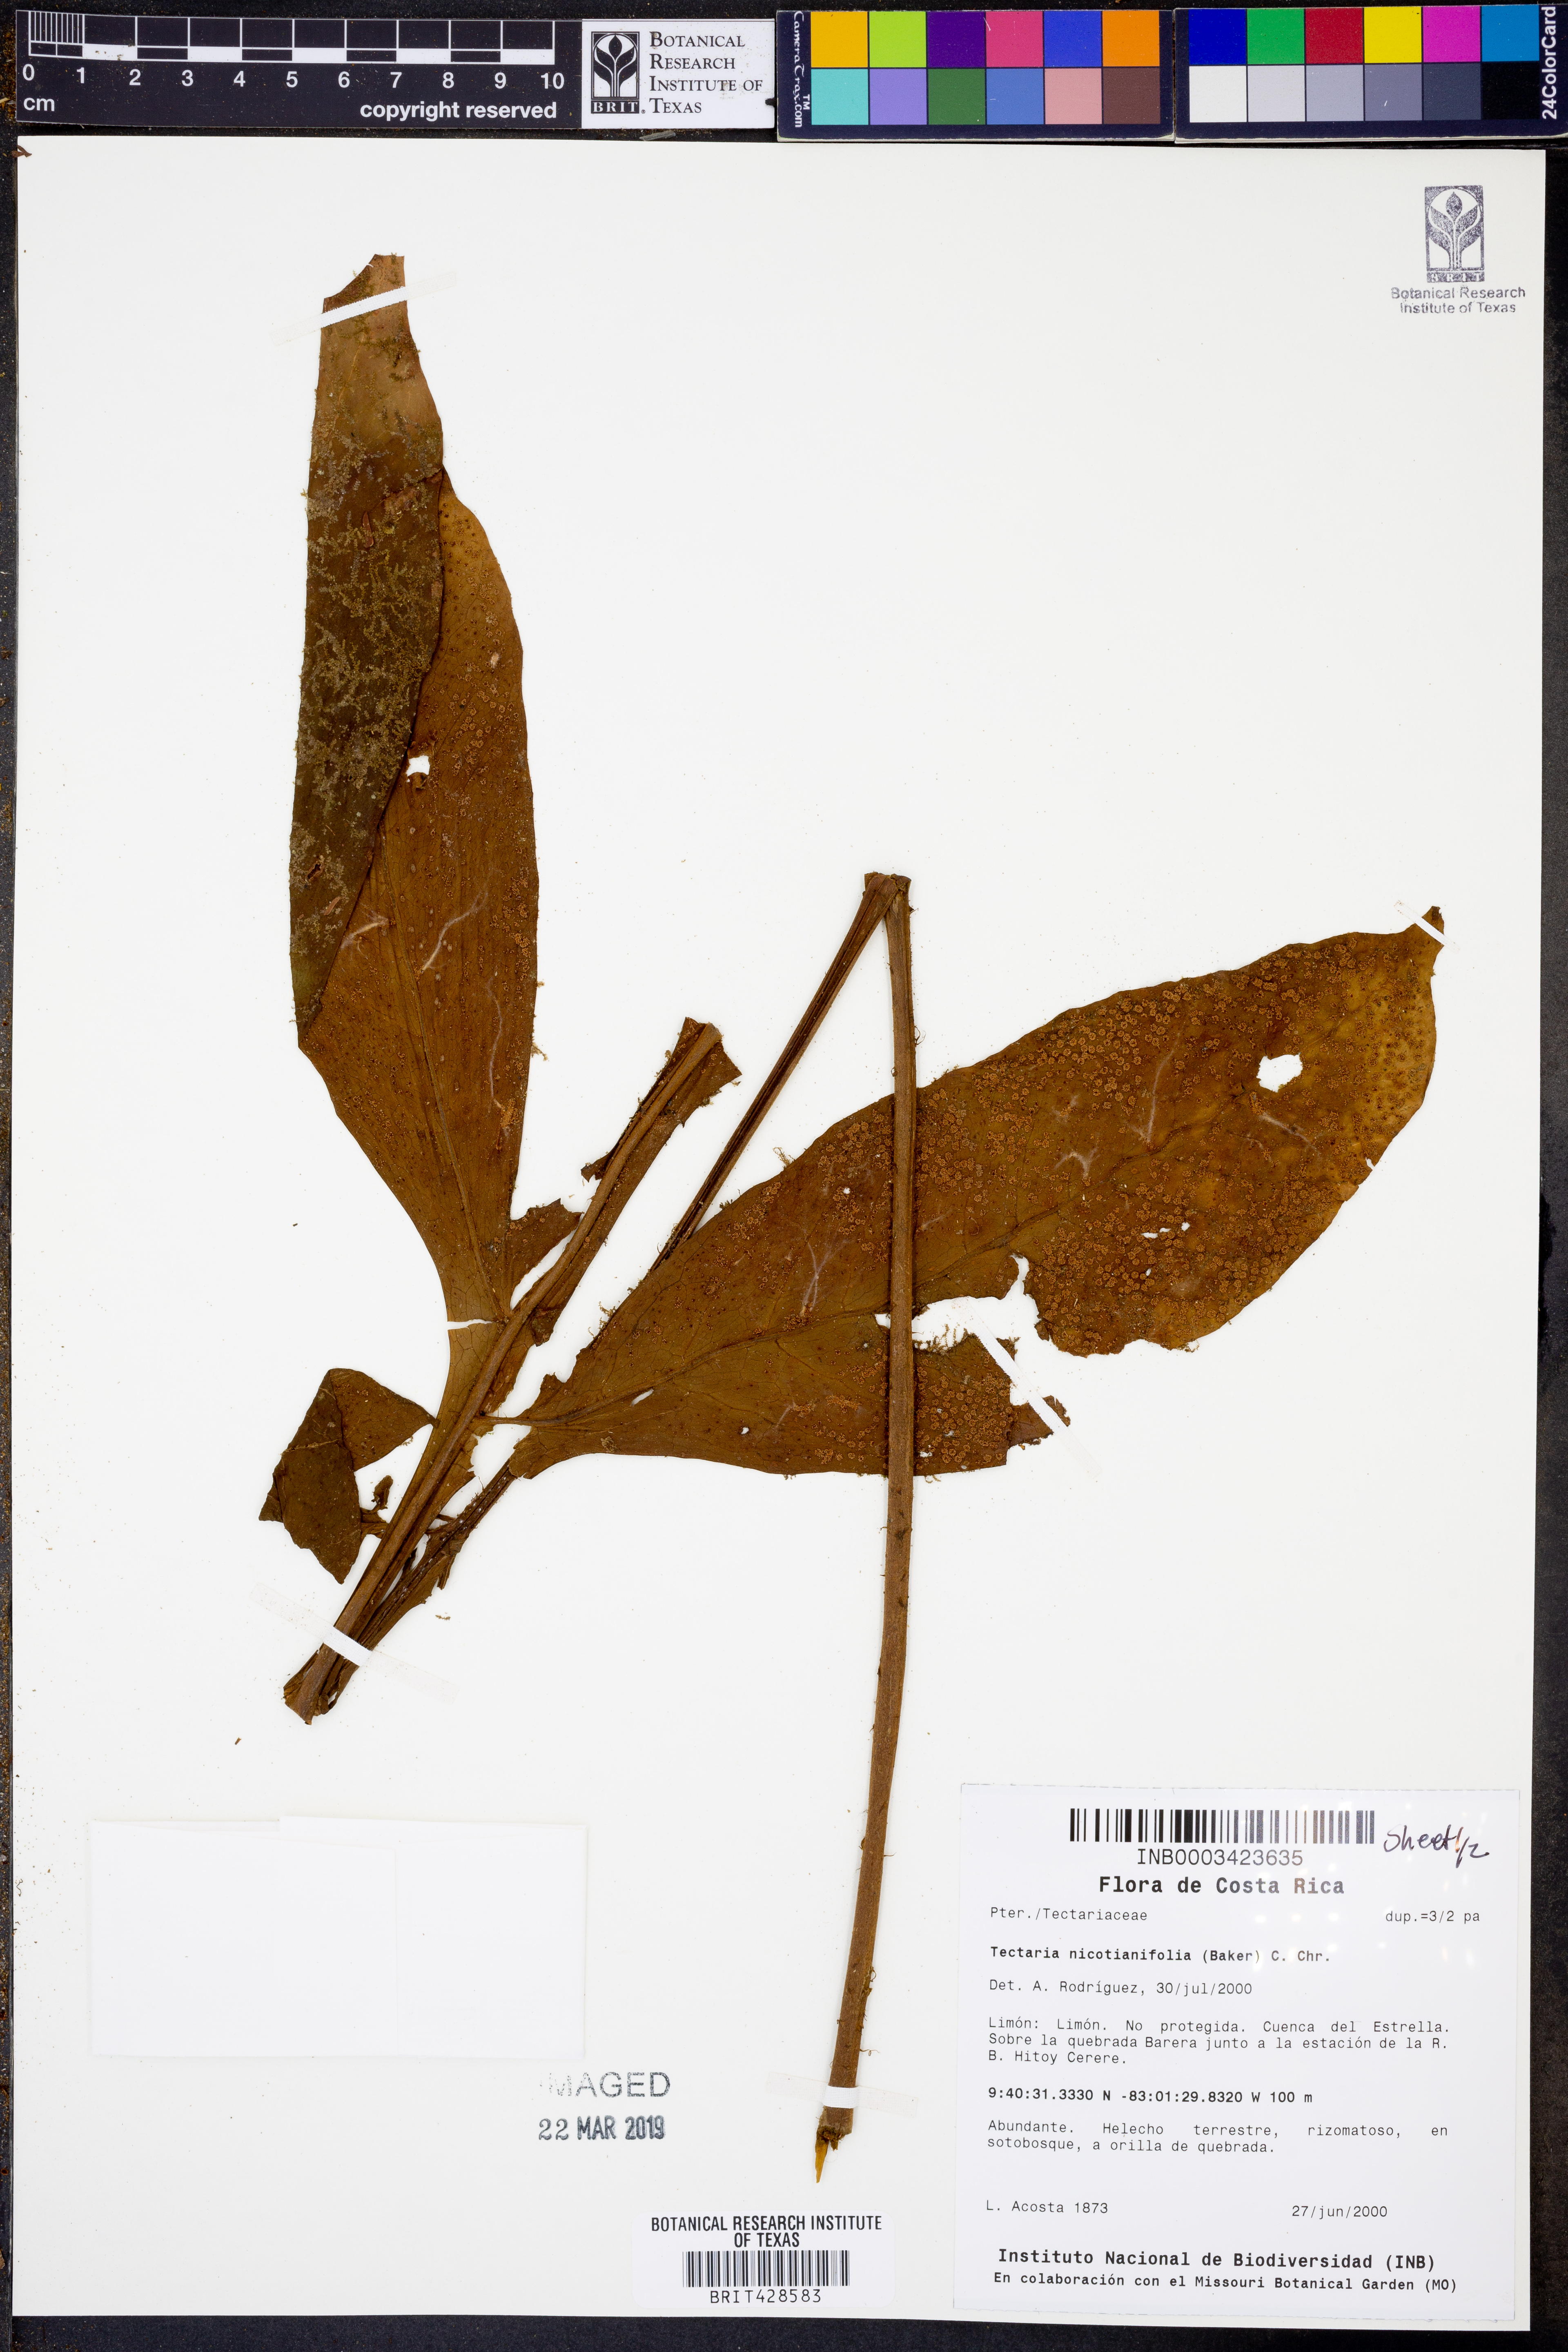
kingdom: Plantae
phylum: Tracheophyta
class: Polypodiopsida
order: Polypodiales
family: Tectariaceae
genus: Hypoderris
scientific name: Hypoderris nicotianifolia
